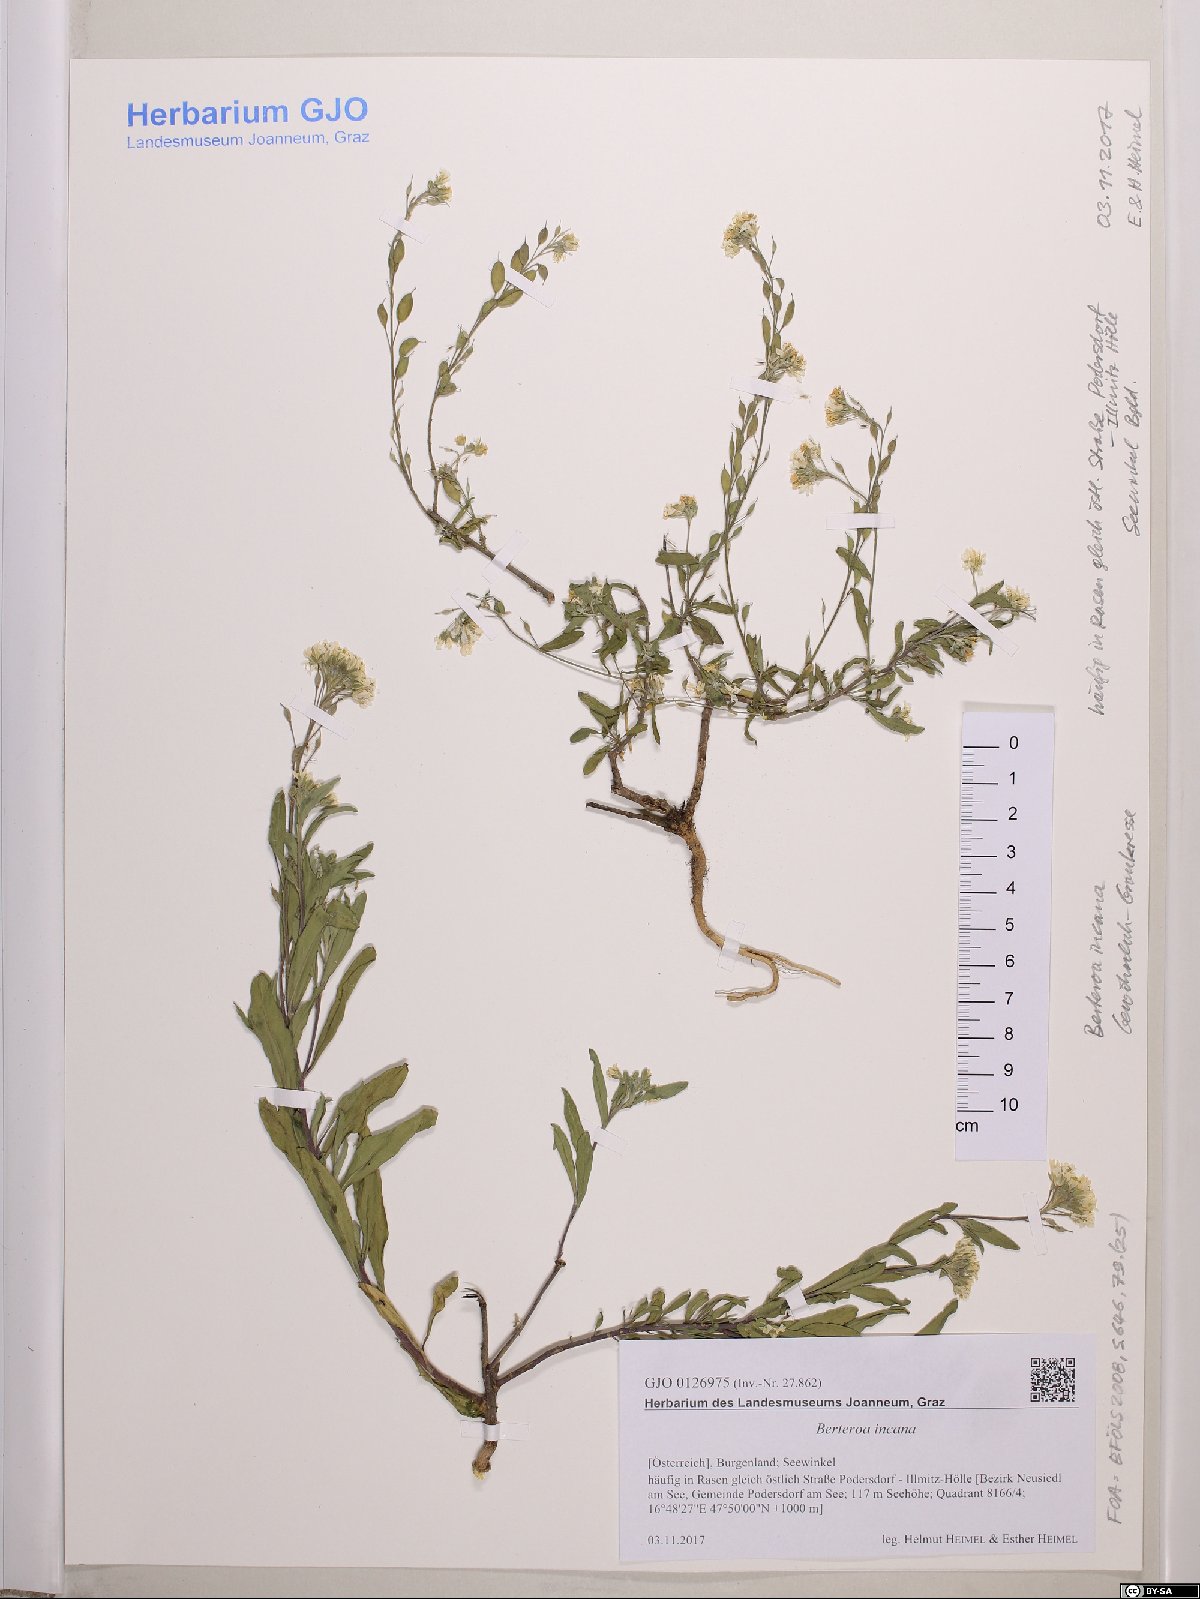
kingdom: Plantae
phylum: Tracheophyta
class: Magnoliopsida
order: Brassicales
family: Brassicaceae
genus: Berteroa
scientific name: Berteroa incana
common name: Hoary alison
